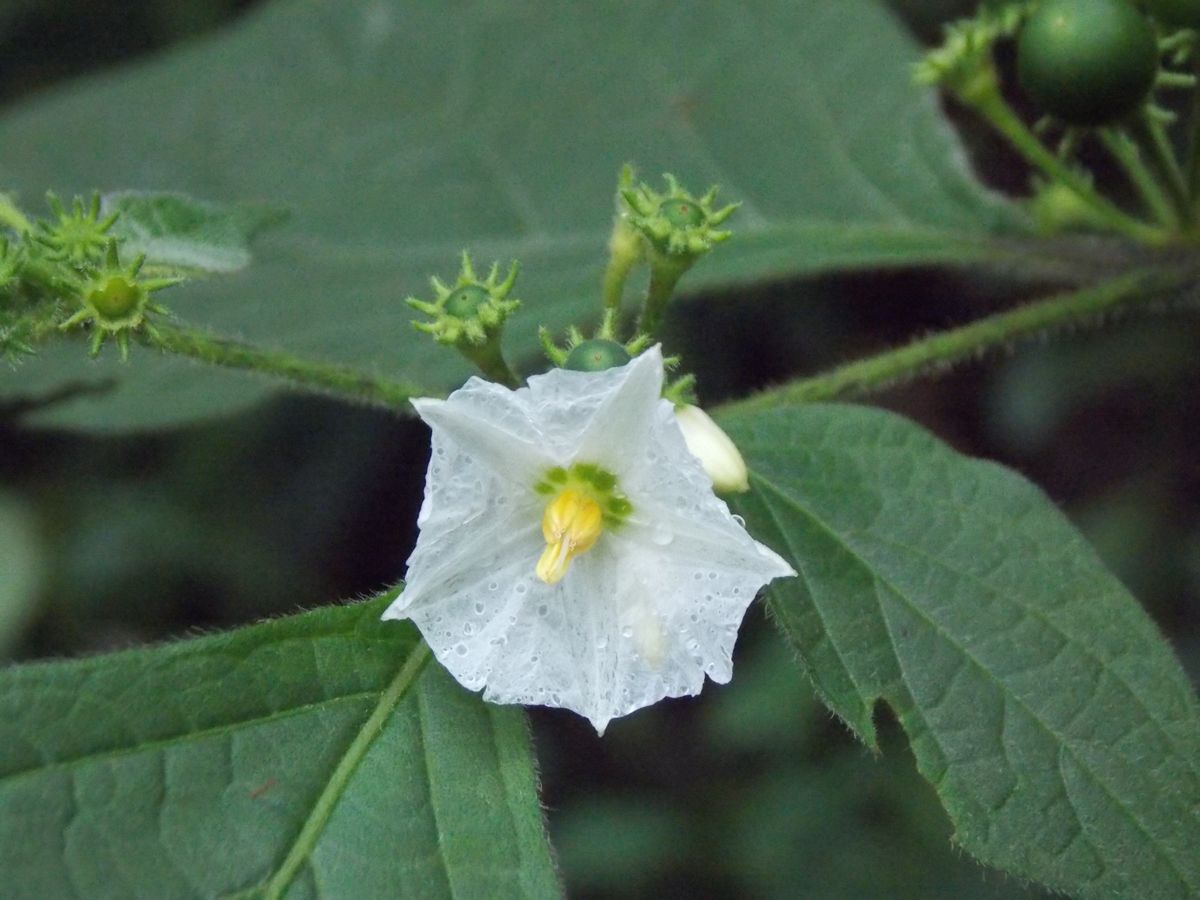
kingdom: Plantae
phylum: Tracheophyta
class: Magnoliopsida
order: Solanales
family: Solanaceae
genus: Lycianthes
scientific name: Lycianthes arrazolensis
